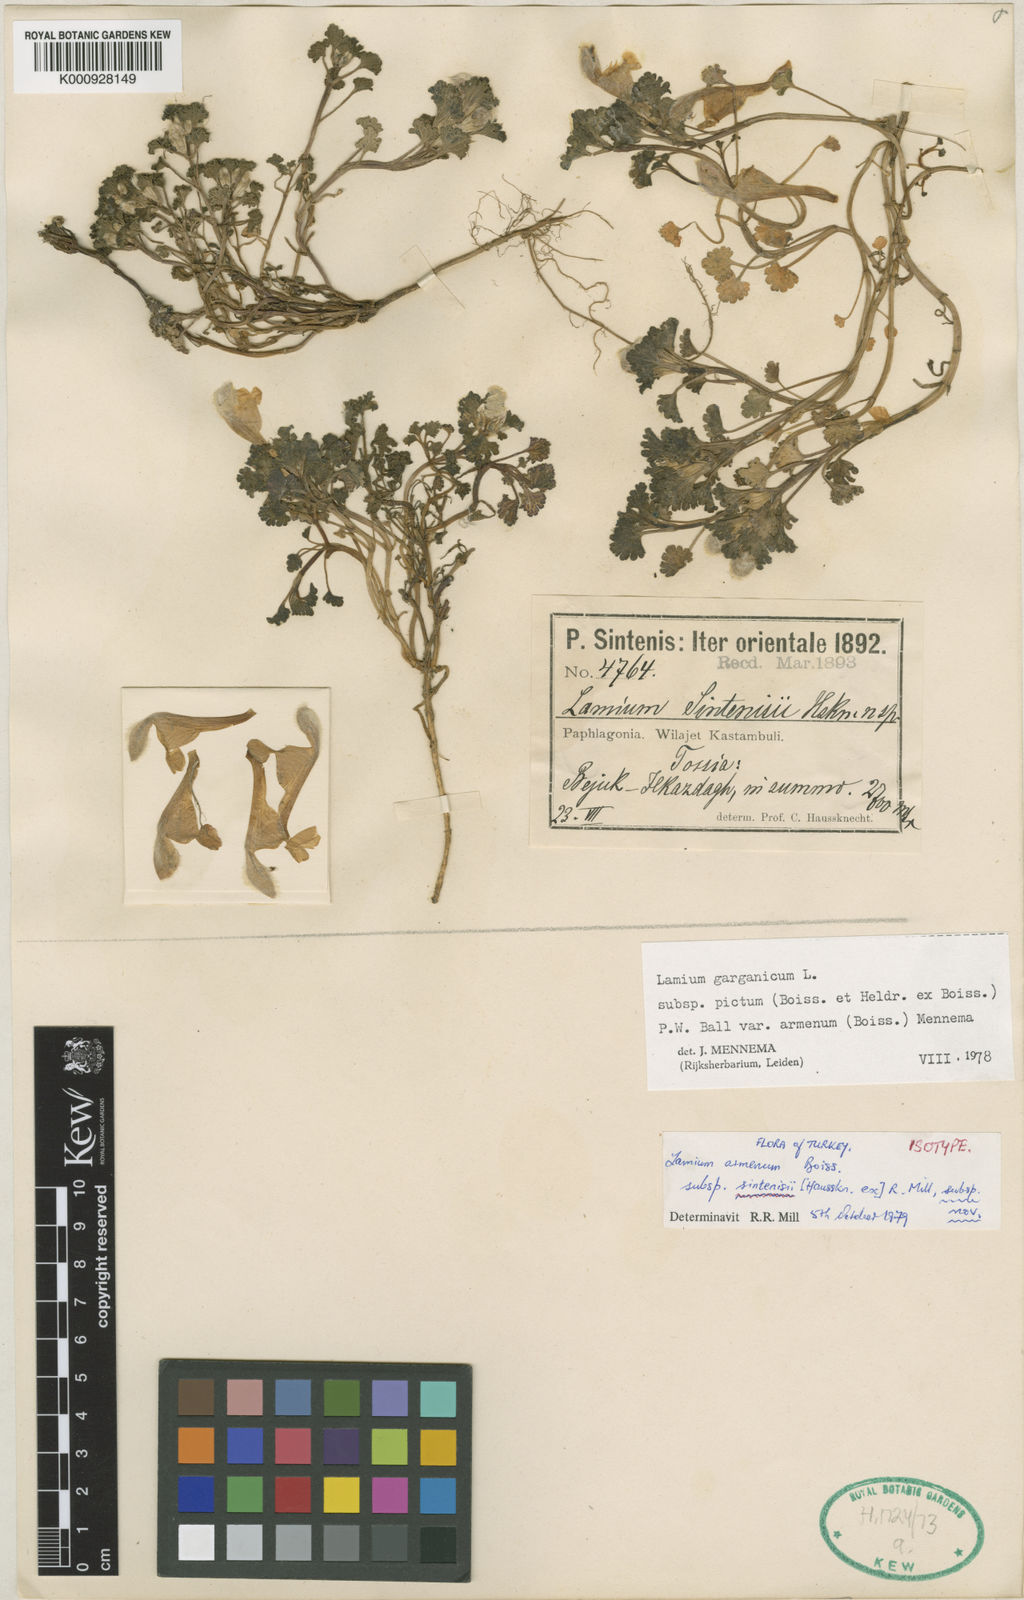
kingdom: Plantae
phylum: Tracheophyta
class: Magnoliopsida
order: Lamiales
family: Lamiaceae
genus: Lamium
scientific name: Lamium garganicum
